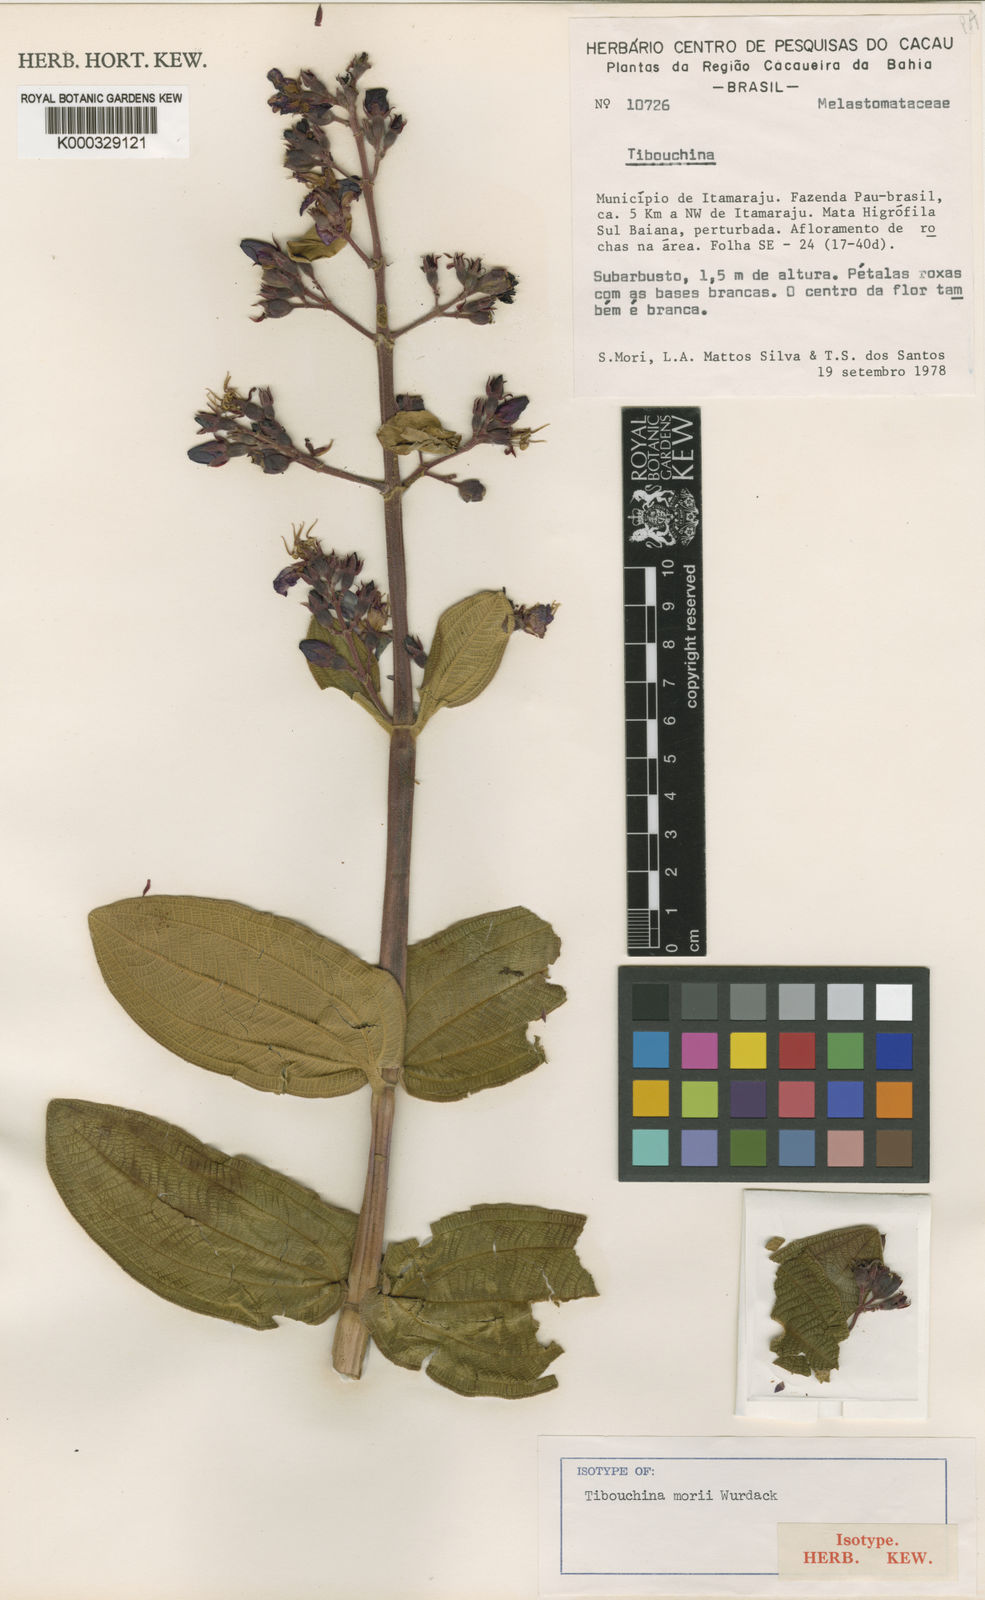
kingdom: Plantae
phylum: Tracheophyta
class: Magnoliopsida
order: Myrtales
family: Melastomataceae
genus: Pleroma
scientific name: Pleroma bahiense
